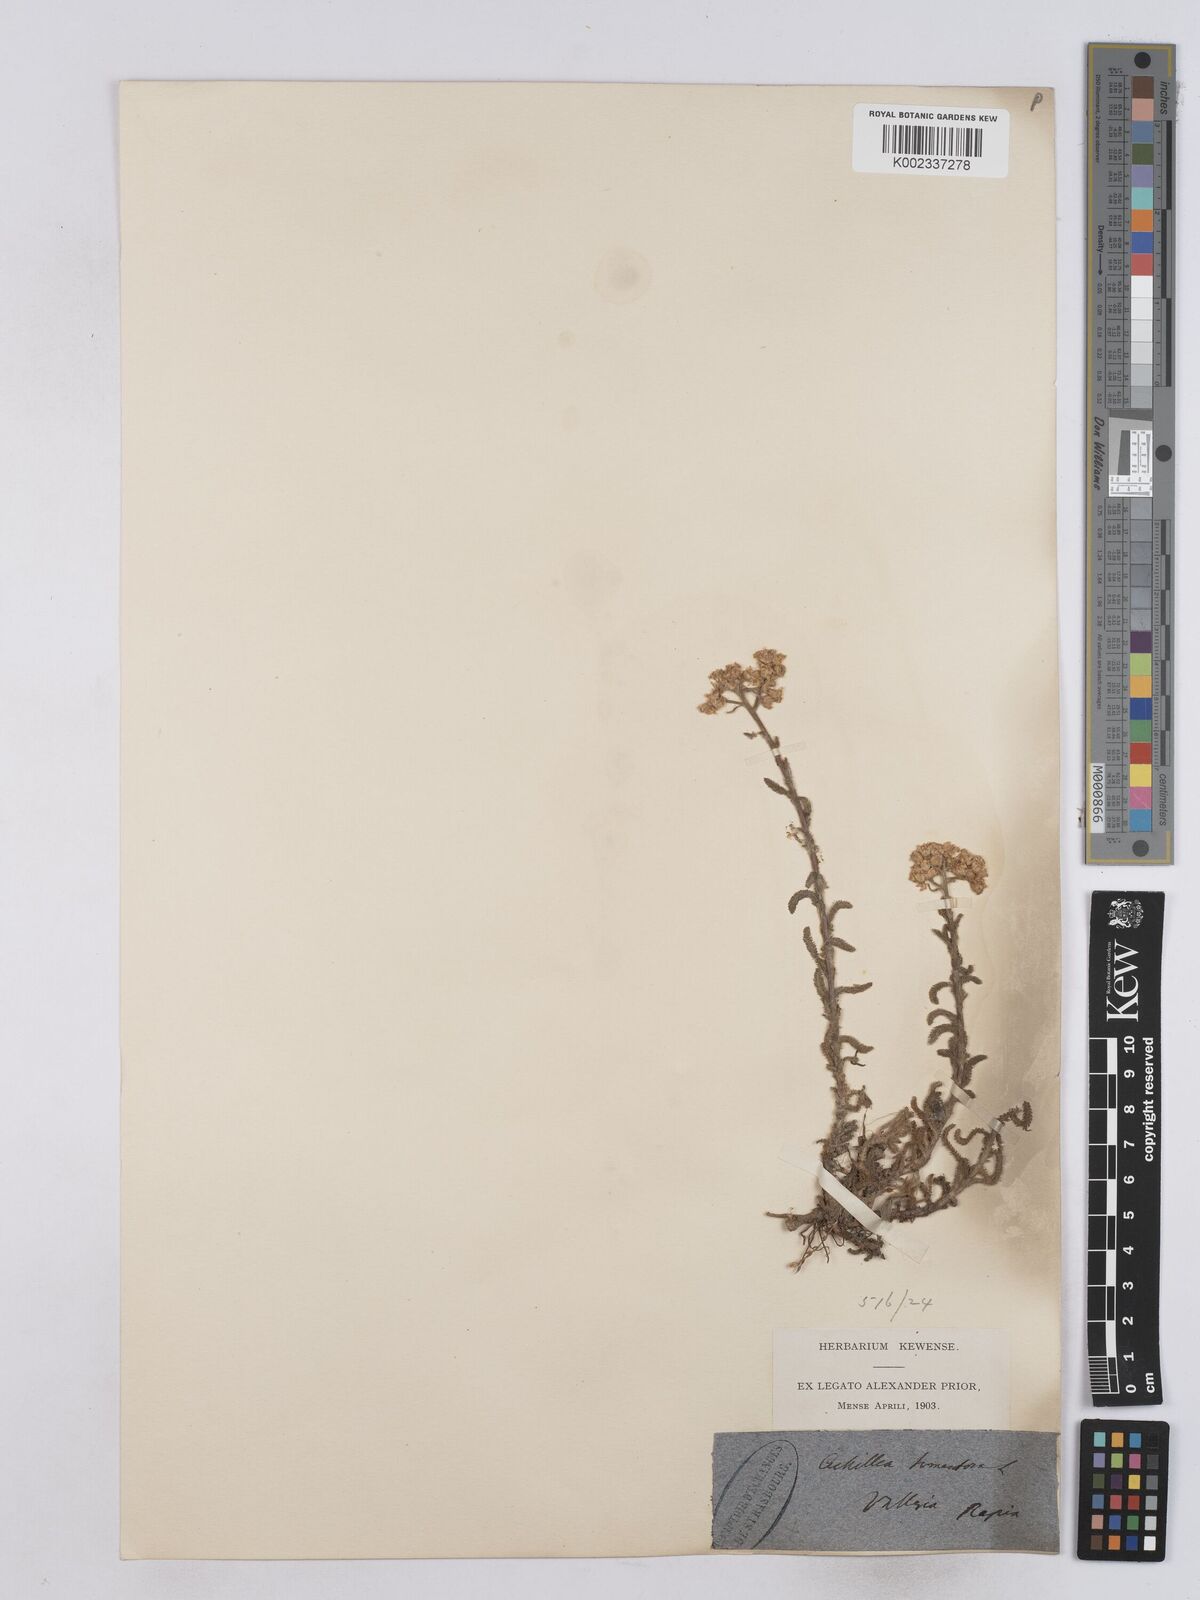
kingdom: Plantae
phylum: Tracheophyta
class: Magnoliopsida
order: Asterales
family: Asteraceae
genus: Achillea
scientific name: Achillea tomentosa
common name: Yellow milfoil
